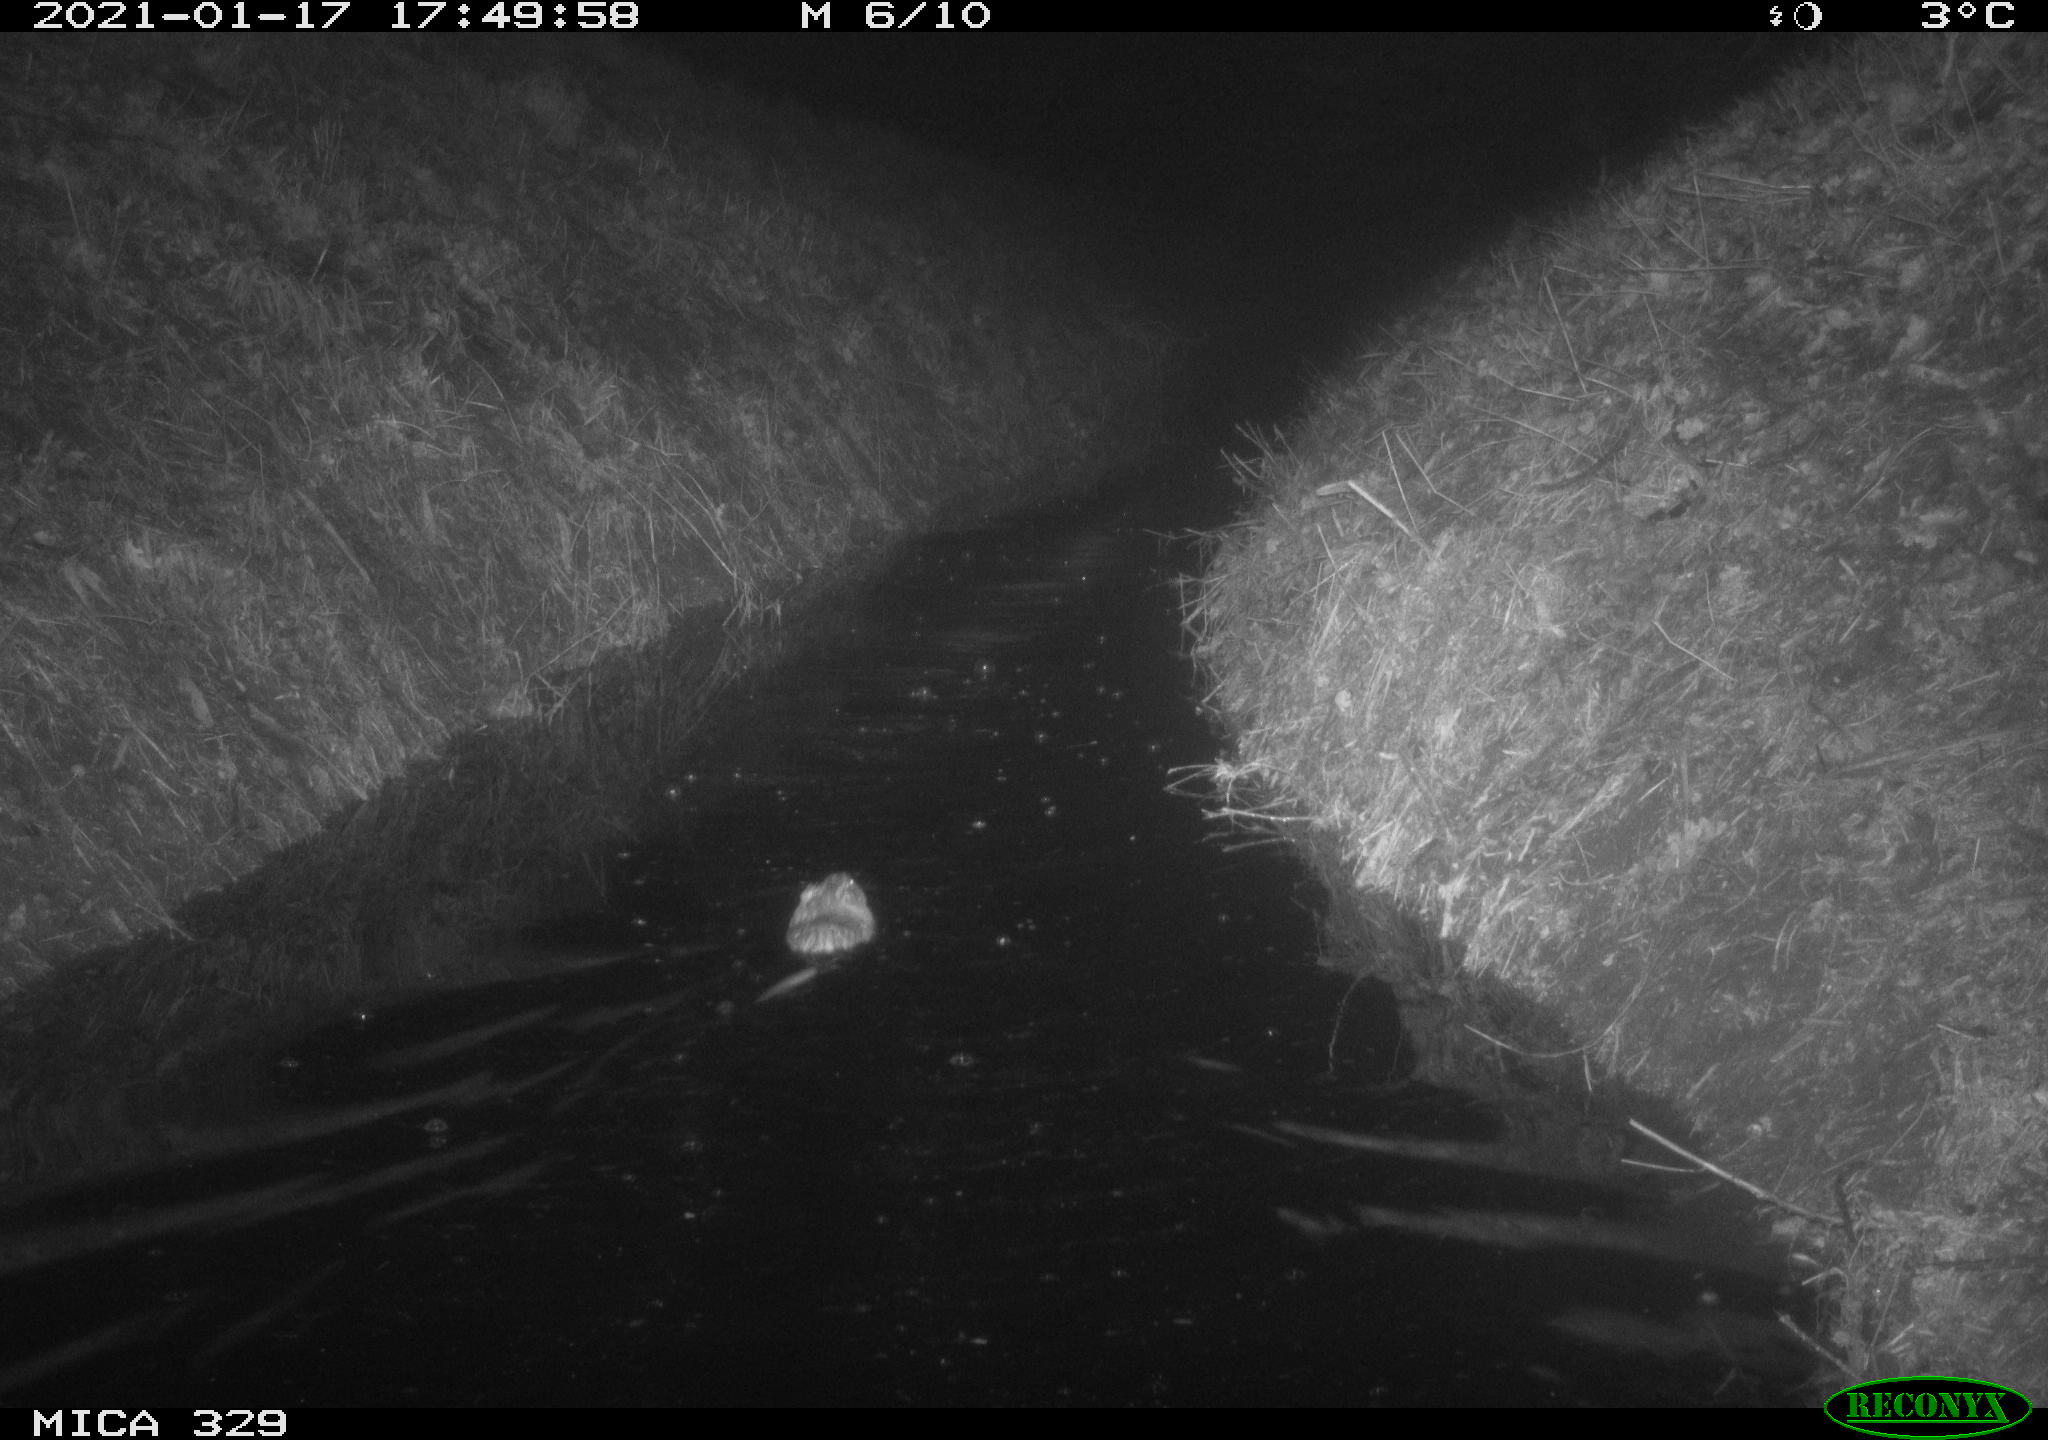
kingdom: Animalia
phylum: Chordata
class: Mammalia
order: Rodentia
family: Cricetidae
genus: Ondatra
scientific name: Ondatra zibethicus
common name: Muskrat
